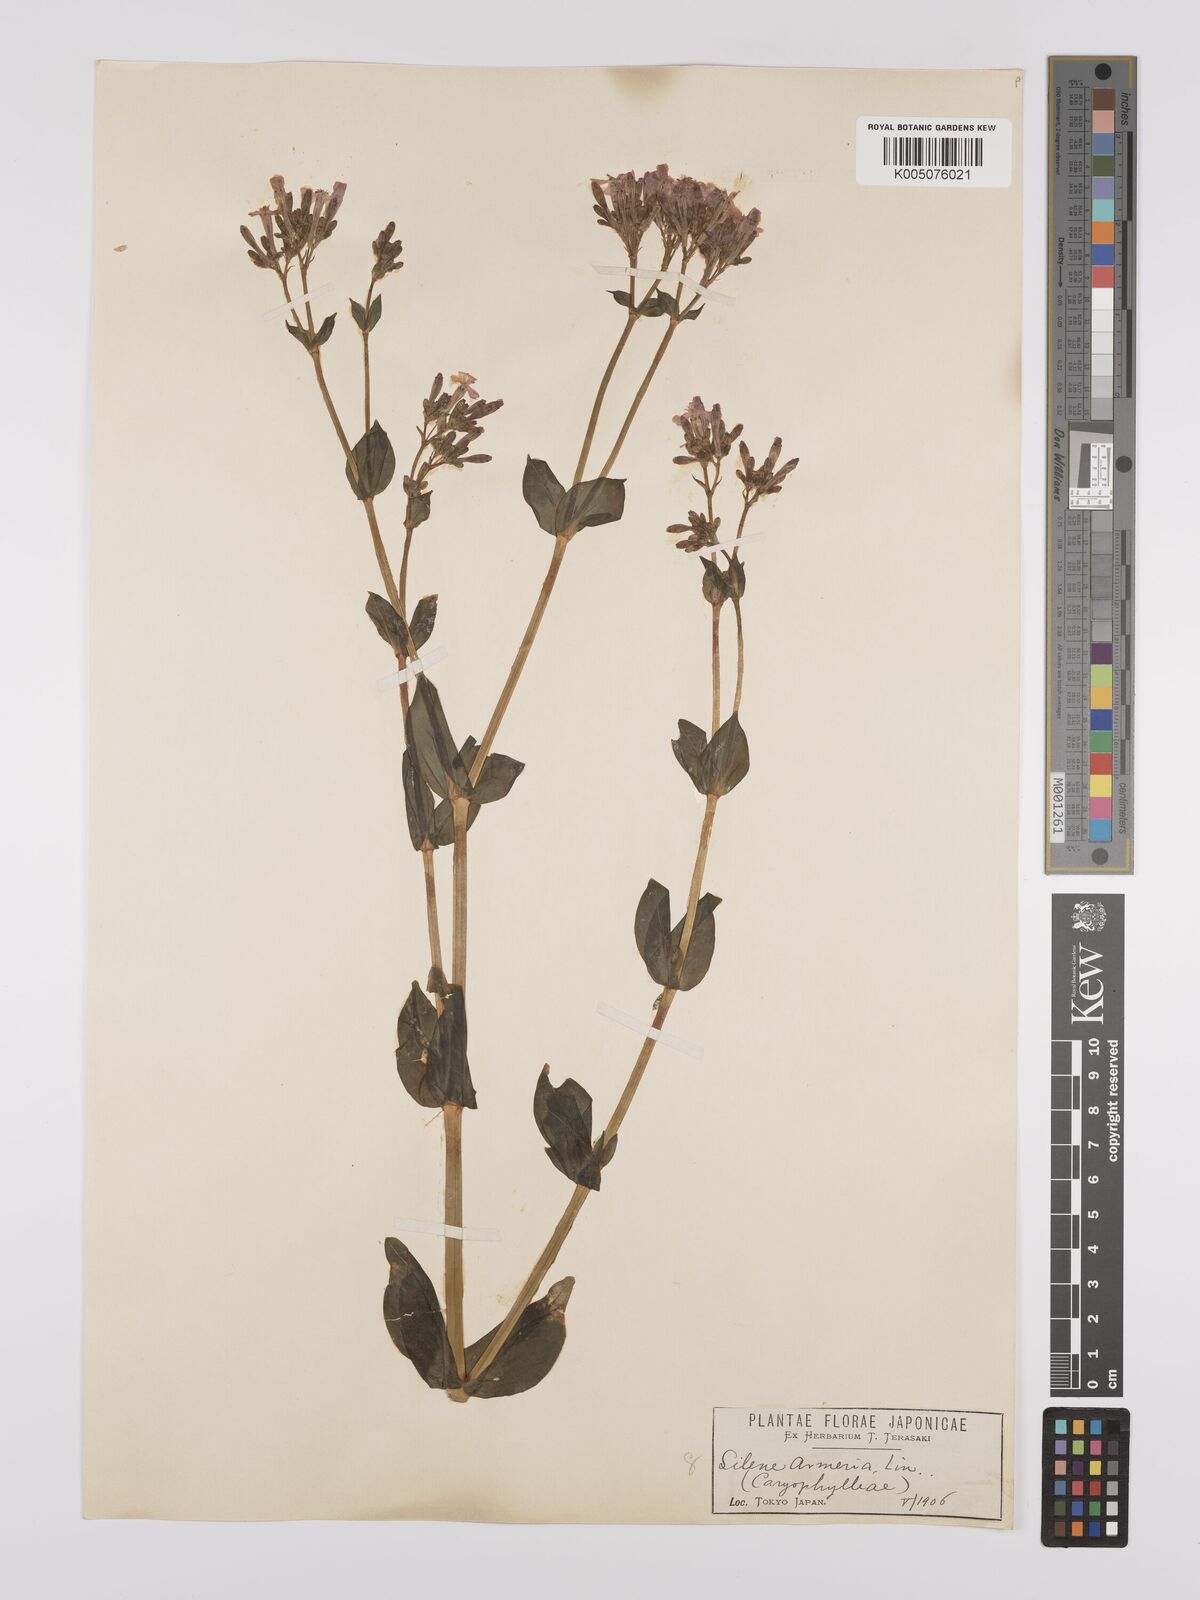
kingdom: Plantae
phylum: Tracheophyta
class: Magnoliopsida
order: Caryophyllales
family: Caryophyllaceae
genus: Silene
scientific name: Silene
